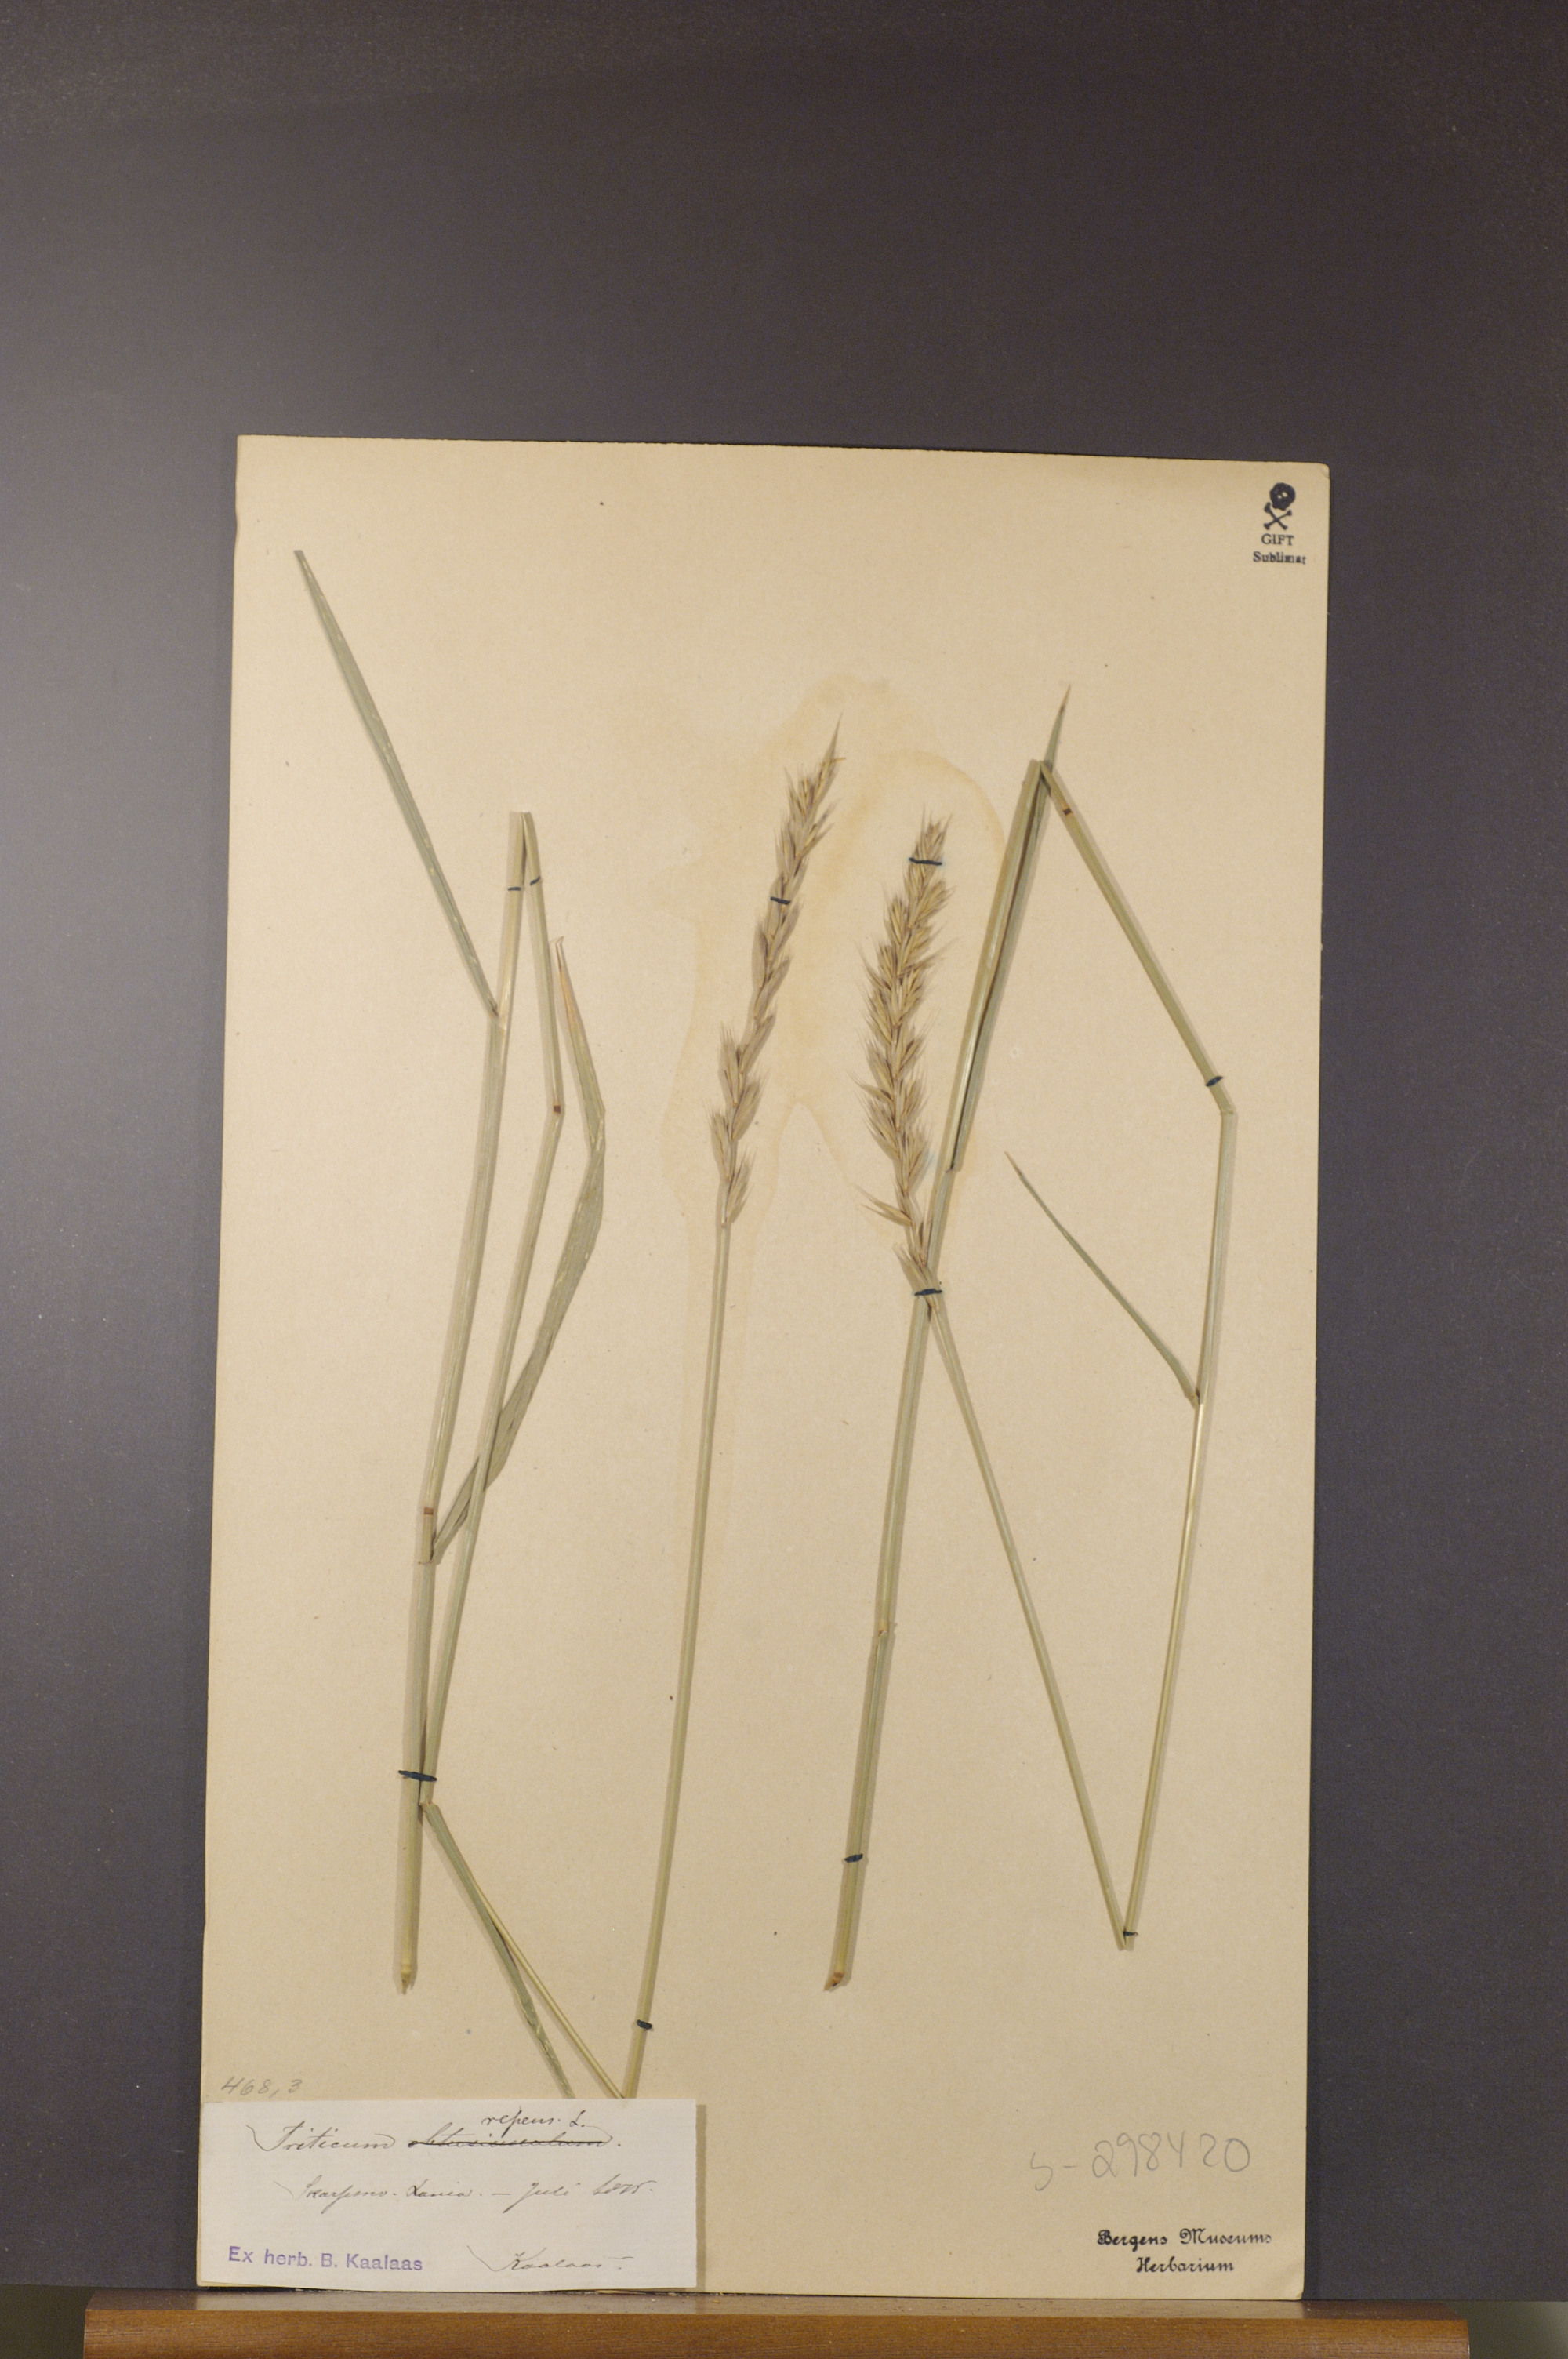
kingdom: Plantae
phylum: Tracheophyta
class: Liliopsida
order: Poales
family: Poaceae
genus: Elymus
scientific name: Elymus repens
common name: Quackgrass
